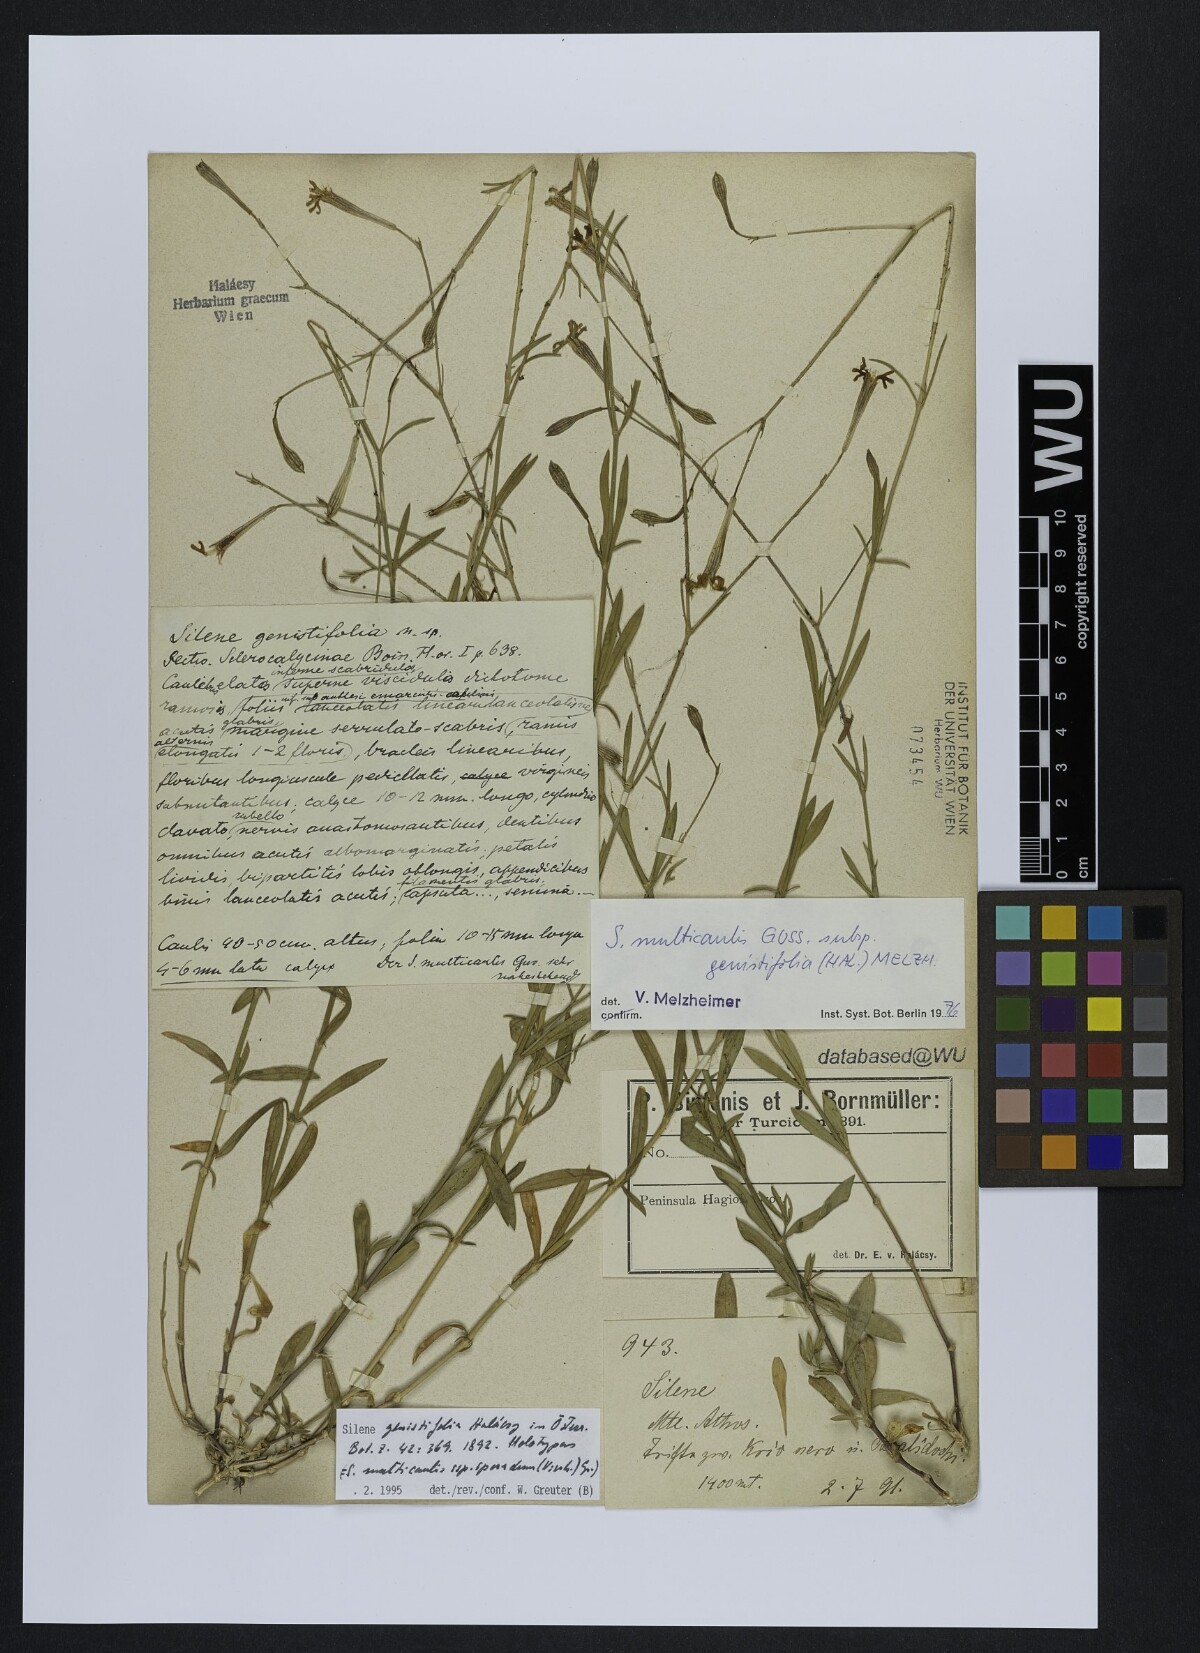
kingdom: Plantae
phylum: Tracheophyta
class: Magnoliopsida
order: Caryophyllales
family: Caryophyllaceae
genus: Silene
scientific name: Silene multicaulis
